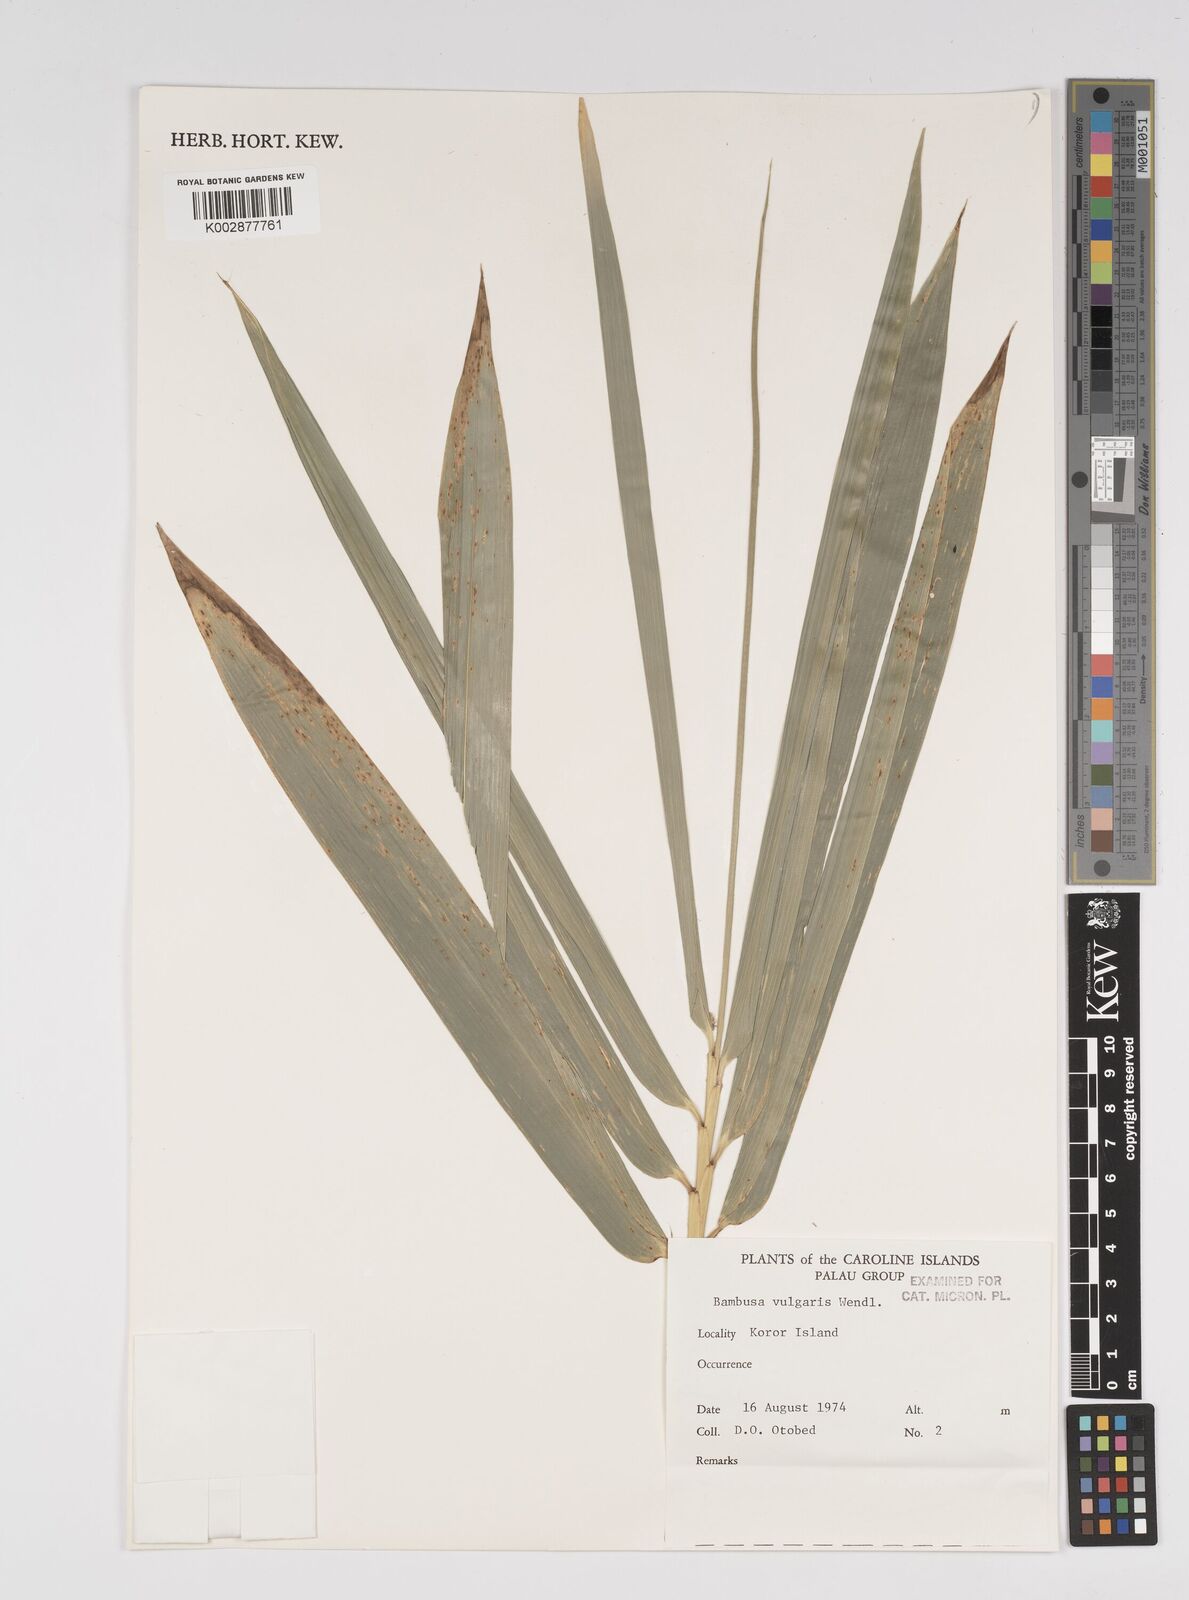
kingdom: Plantae
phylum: Tracheophyta
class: Liliopsida
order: Poales
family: Poaceae
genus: Bambusa
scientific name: Bambusa
